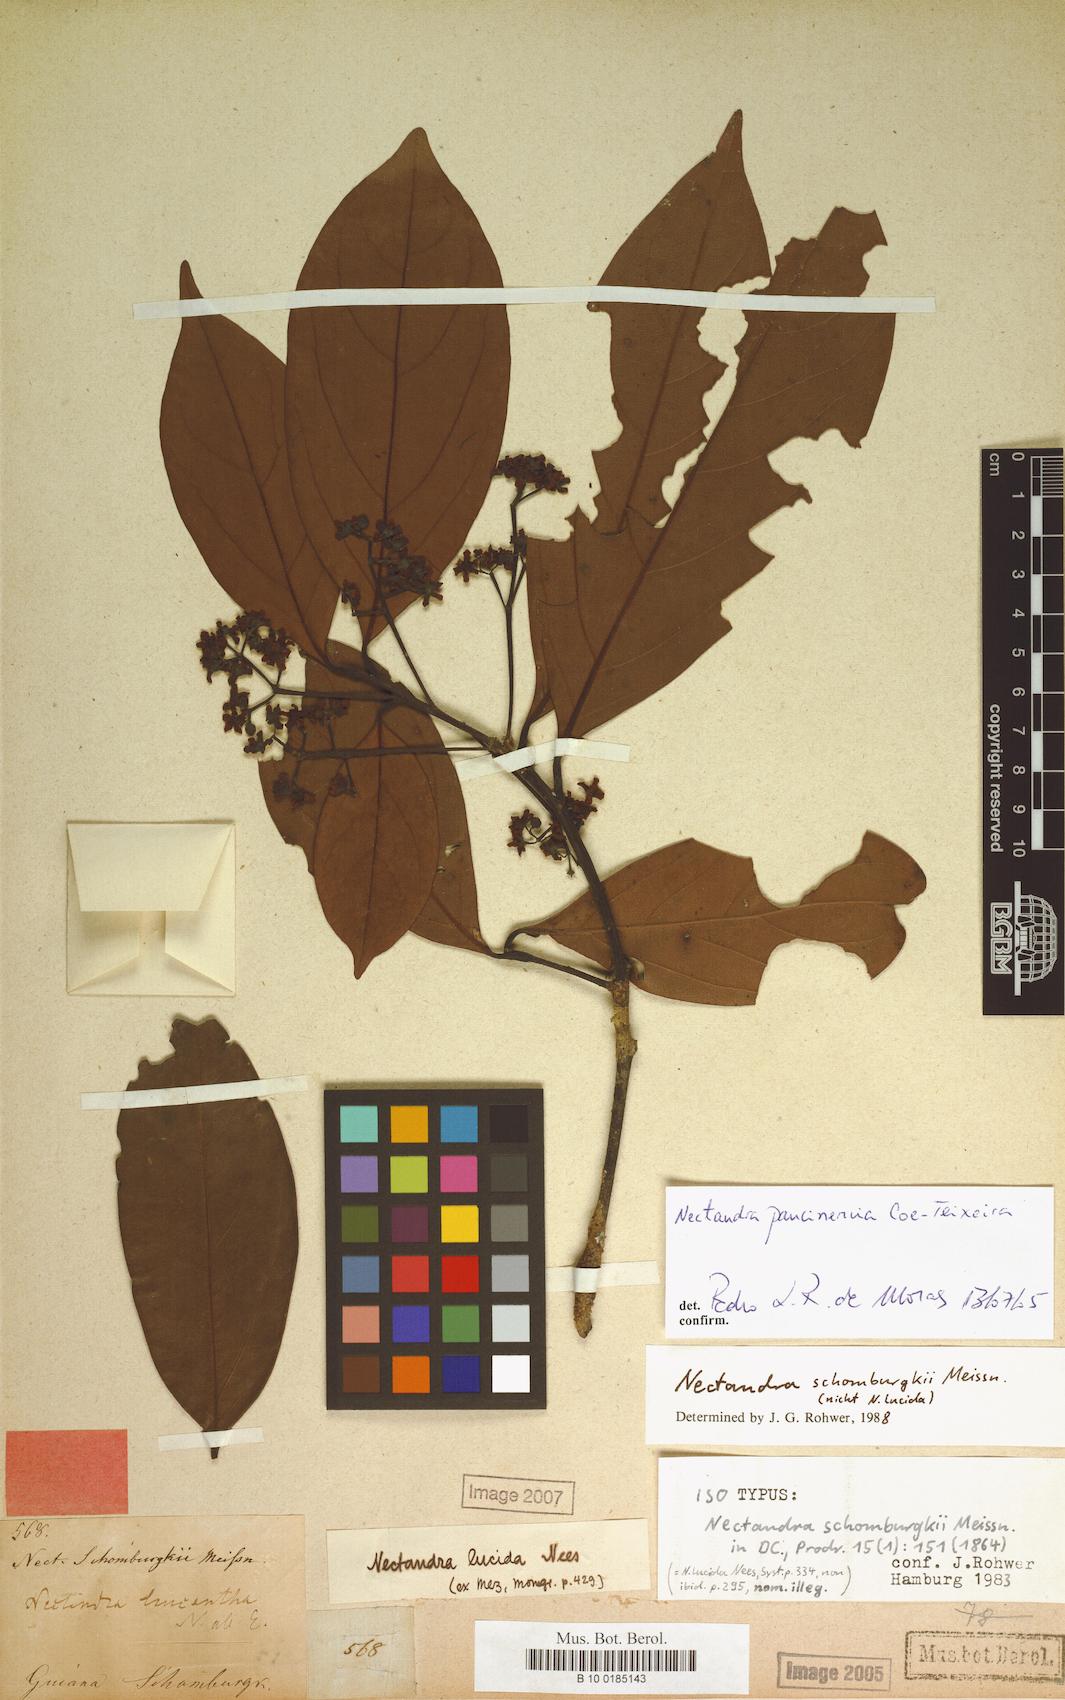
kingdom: Plantae
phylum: Tracheophyta
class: Magnoliopsida
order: Laurales
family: Lauraceae
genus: Nectandra
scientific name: Nectandra paucinervia
